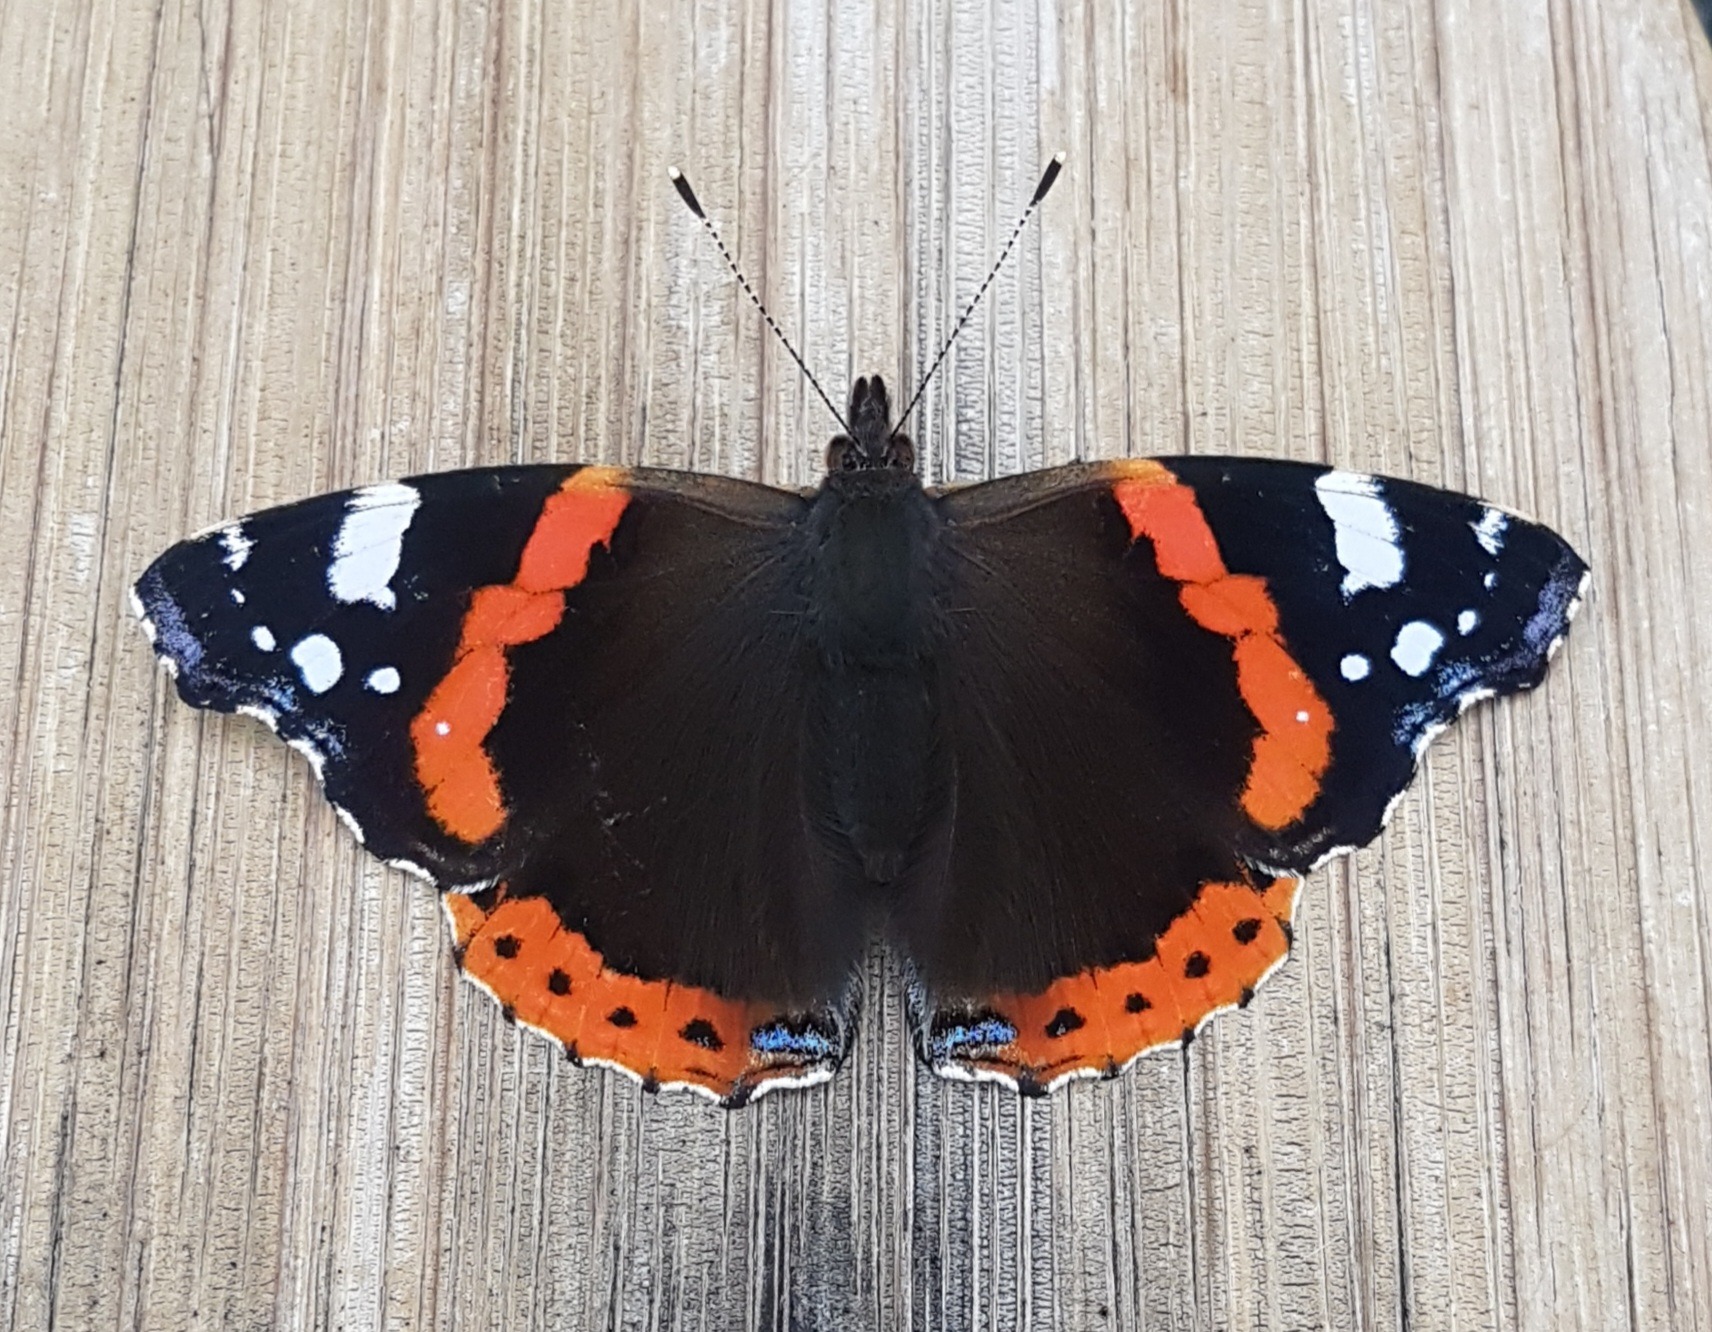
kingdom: Animalia
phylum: Arthropoda
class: Insecta
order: Lepidoptera
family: Nymphalidae
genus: Vanessa
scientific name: Vanessa atalanta
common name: Admiral
